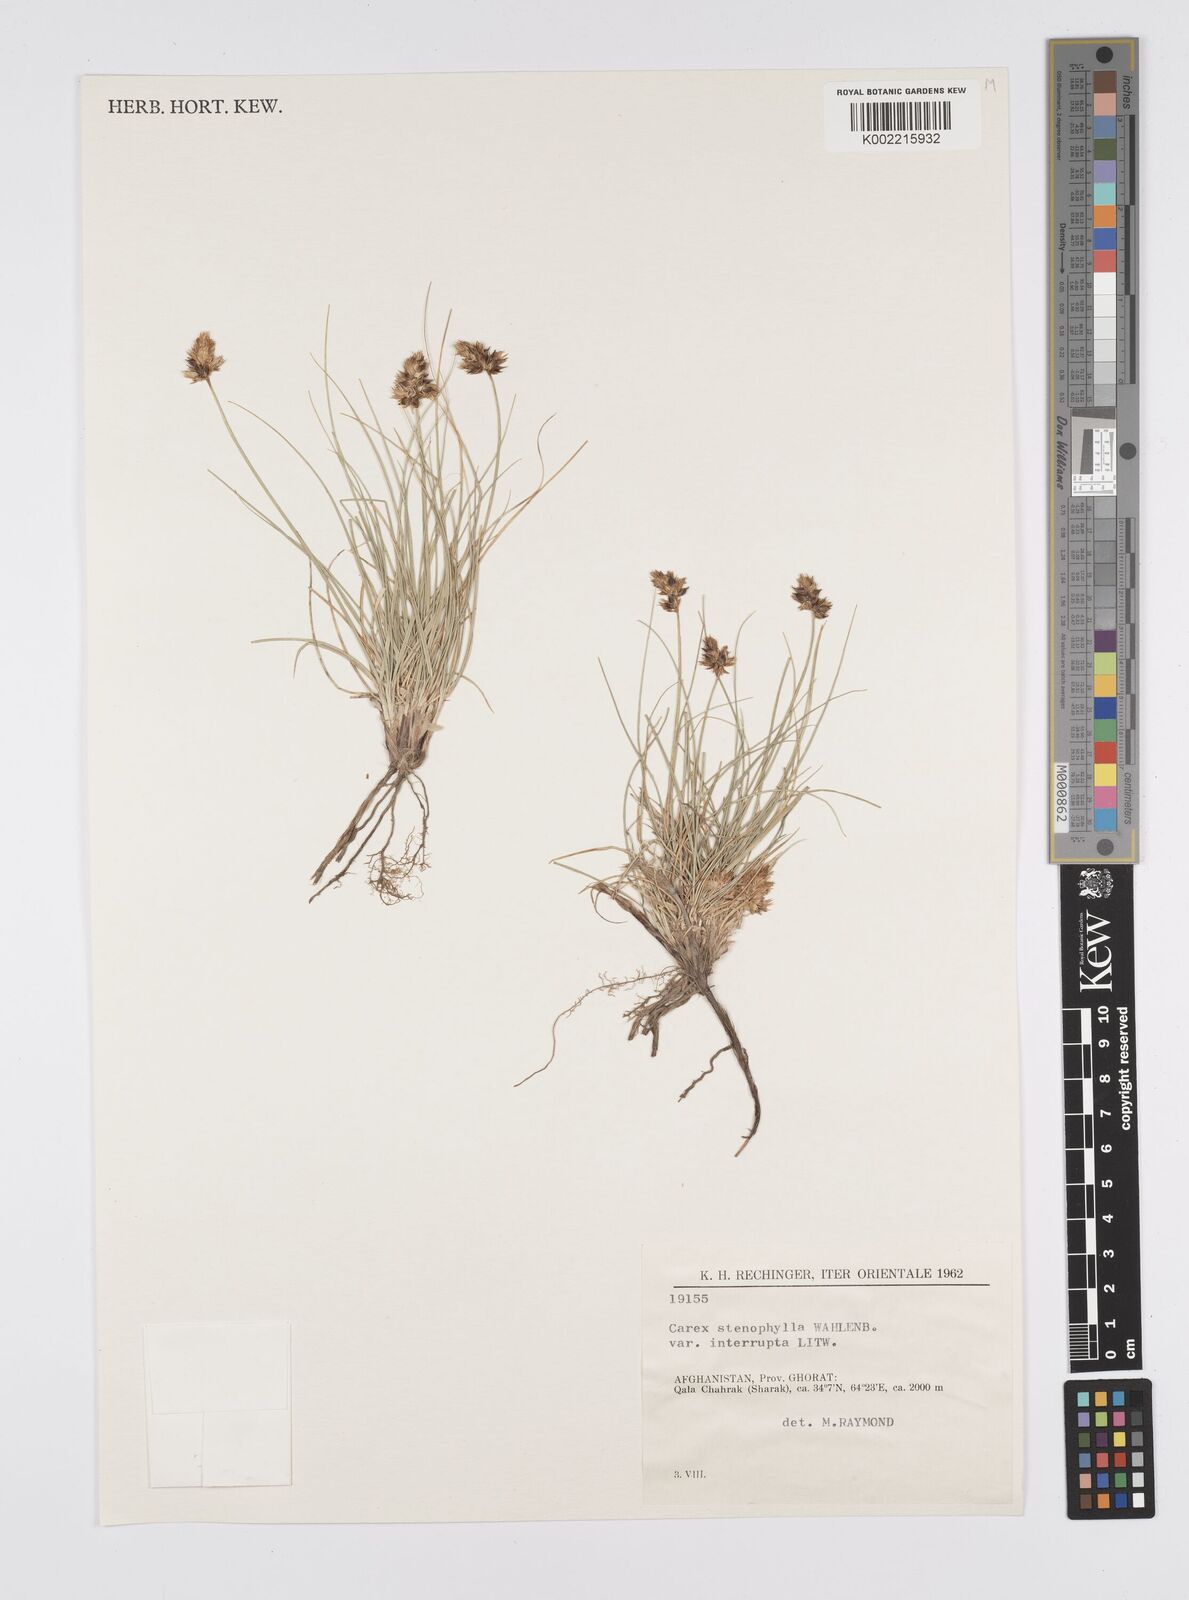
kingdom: Plantae
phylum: Tracheophyta
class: Liliopsida
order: Poales
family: Cyperaceae
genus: Carex
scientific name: Carex stenophylla
